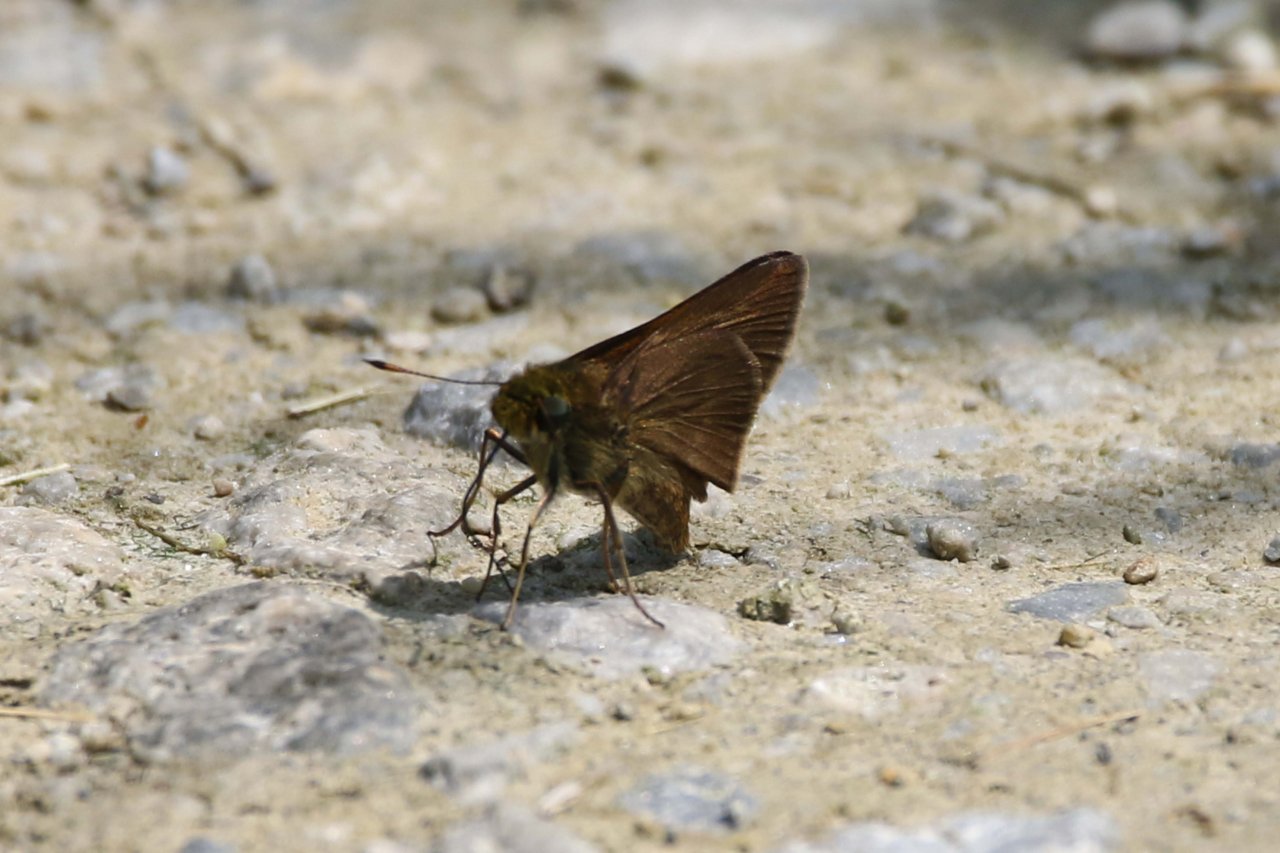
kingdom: Animalia
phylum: Arthropoda
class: Insecta
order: Lepidoptera
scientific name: Lepidoptera
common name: Butterflies
